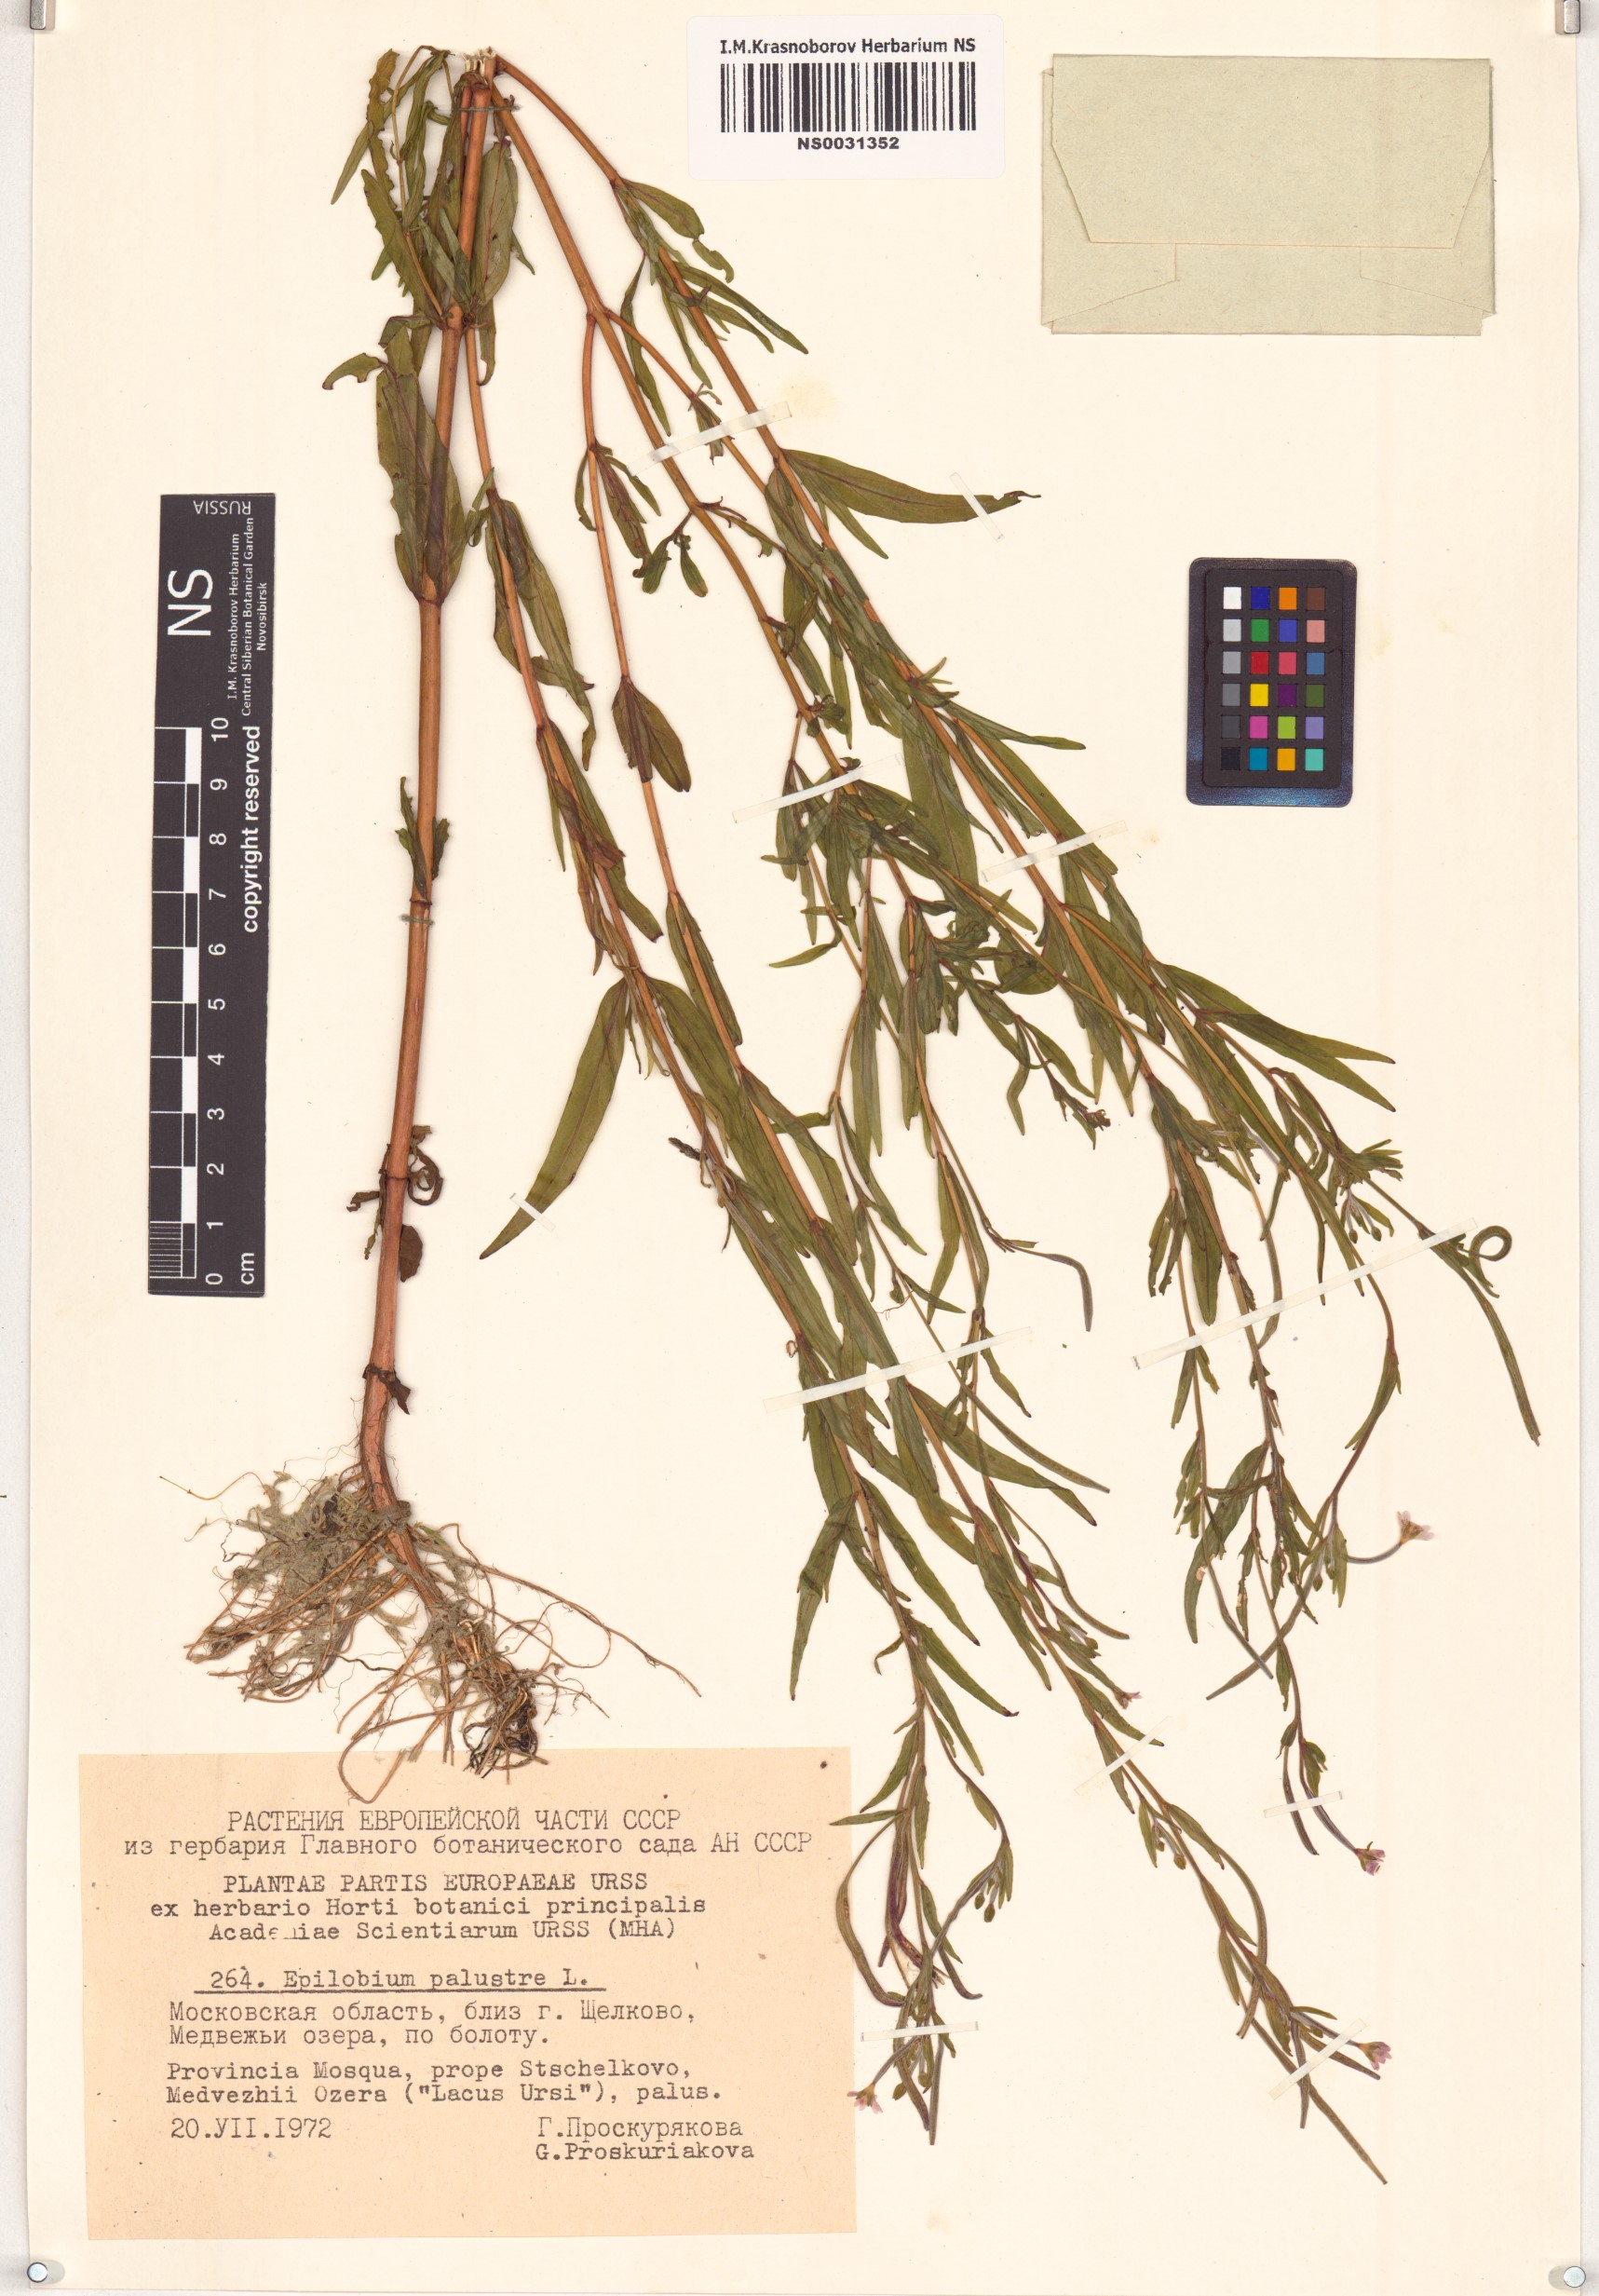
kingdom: Plantae
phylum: Tracheophyta
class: Magnoliopsida
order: Myrtales
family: Onagraceae
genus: Epilobium
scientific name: Epilobium palustre
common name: Marsh willowherb
